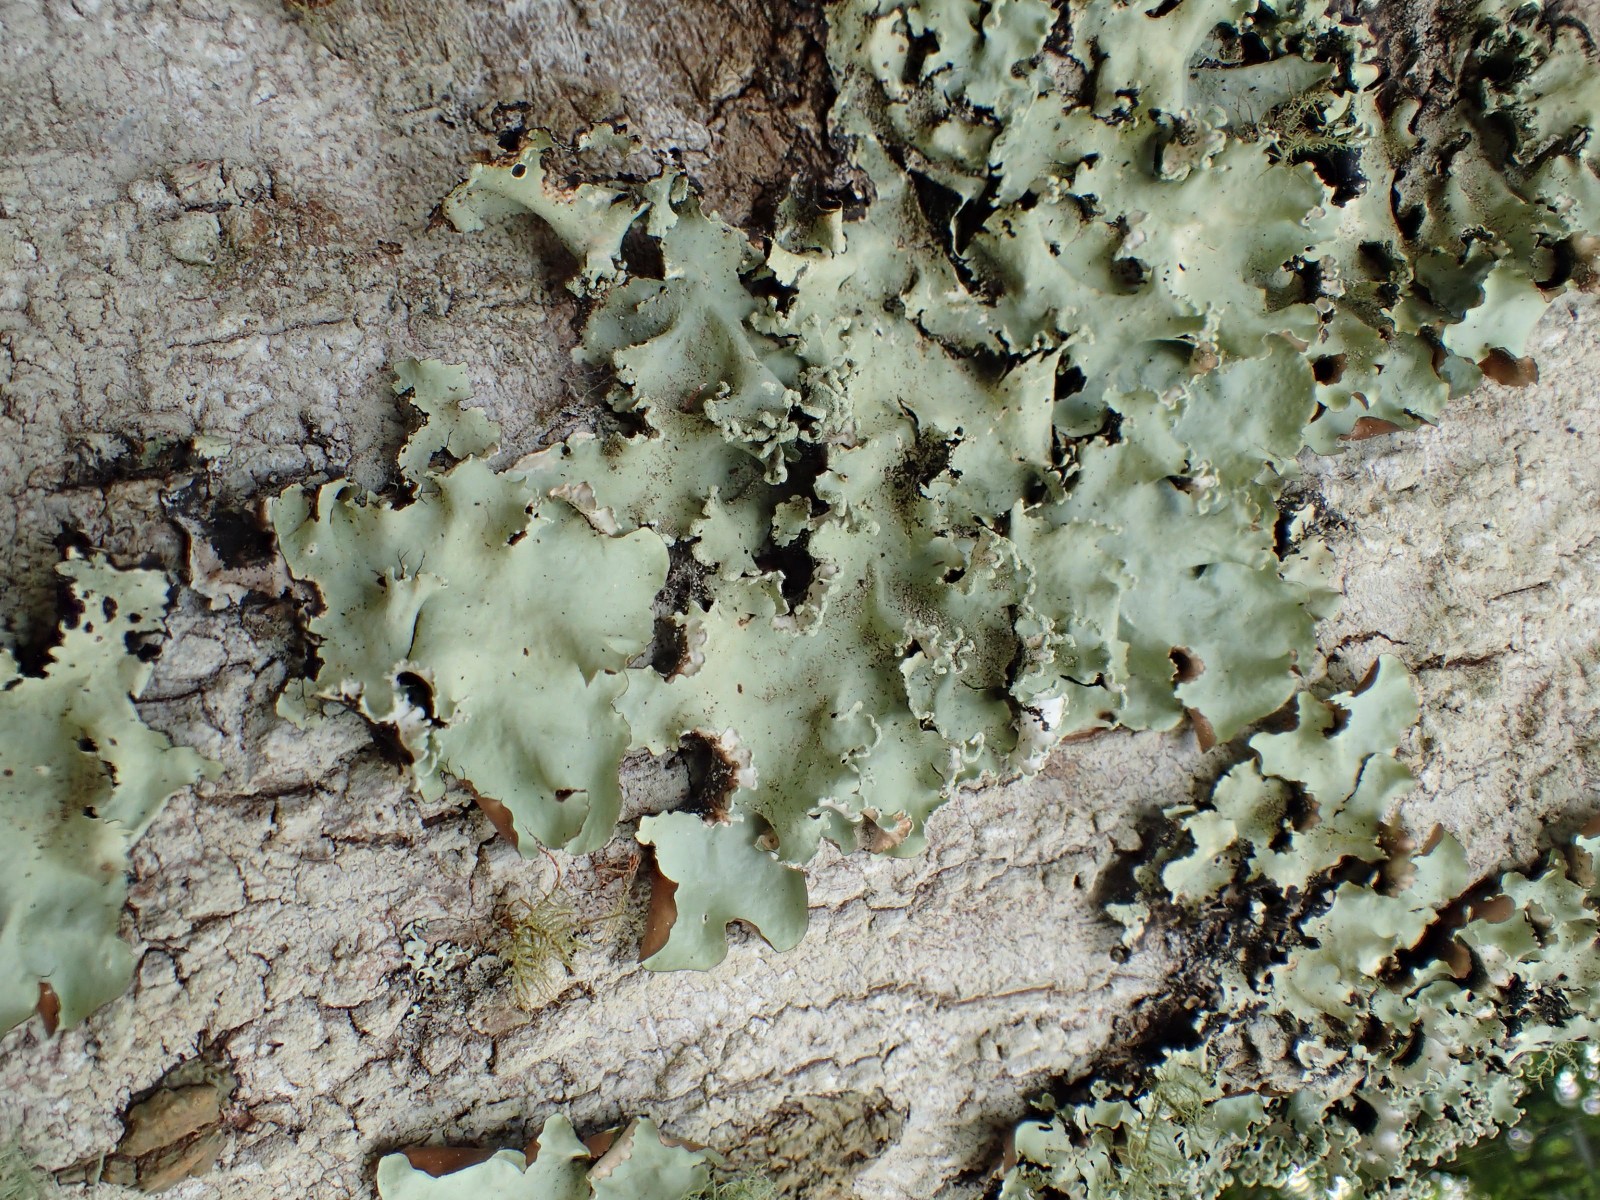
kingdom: Fungi
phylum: Ascomycota
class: Lecanoromycetes
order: Lecanorales
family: Parmeliaceae
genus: Parmotrema
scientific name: Parmotrema
